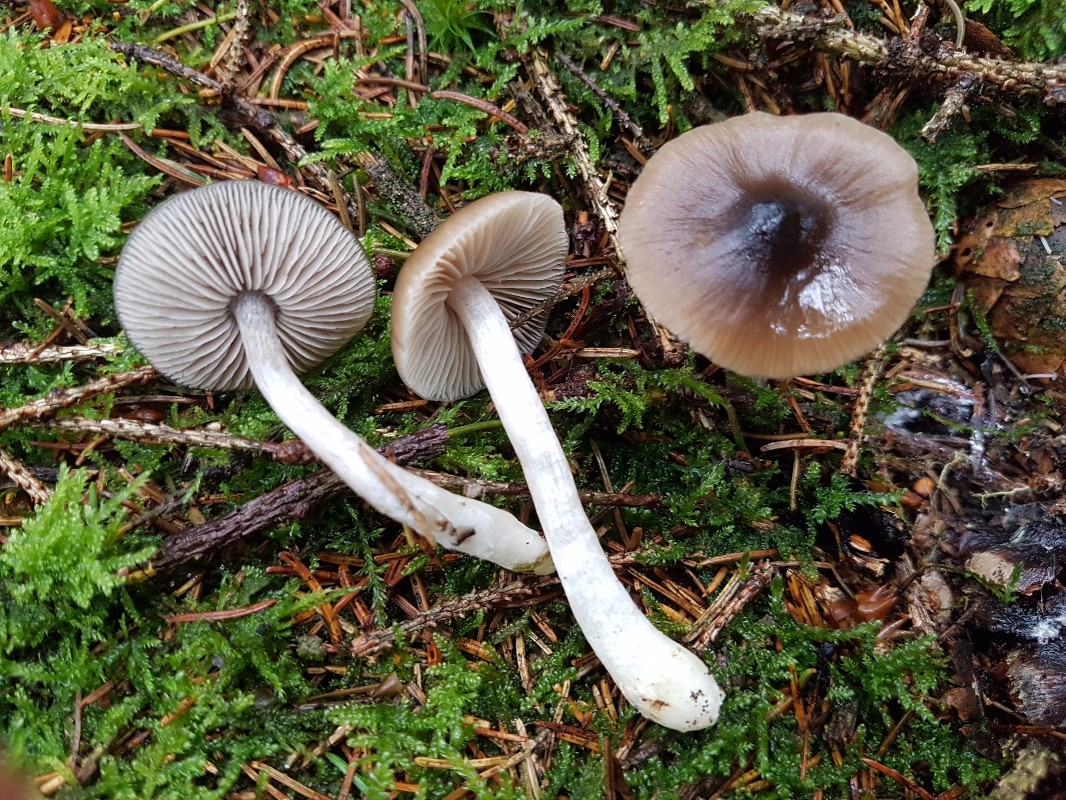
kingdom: Fungi
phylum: Basidiomycota
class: Agaricomycetes
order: Agaricales
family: Entolomataceae
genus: Entocybe
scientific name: Entocybe turbida
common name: plantage-rødblad
